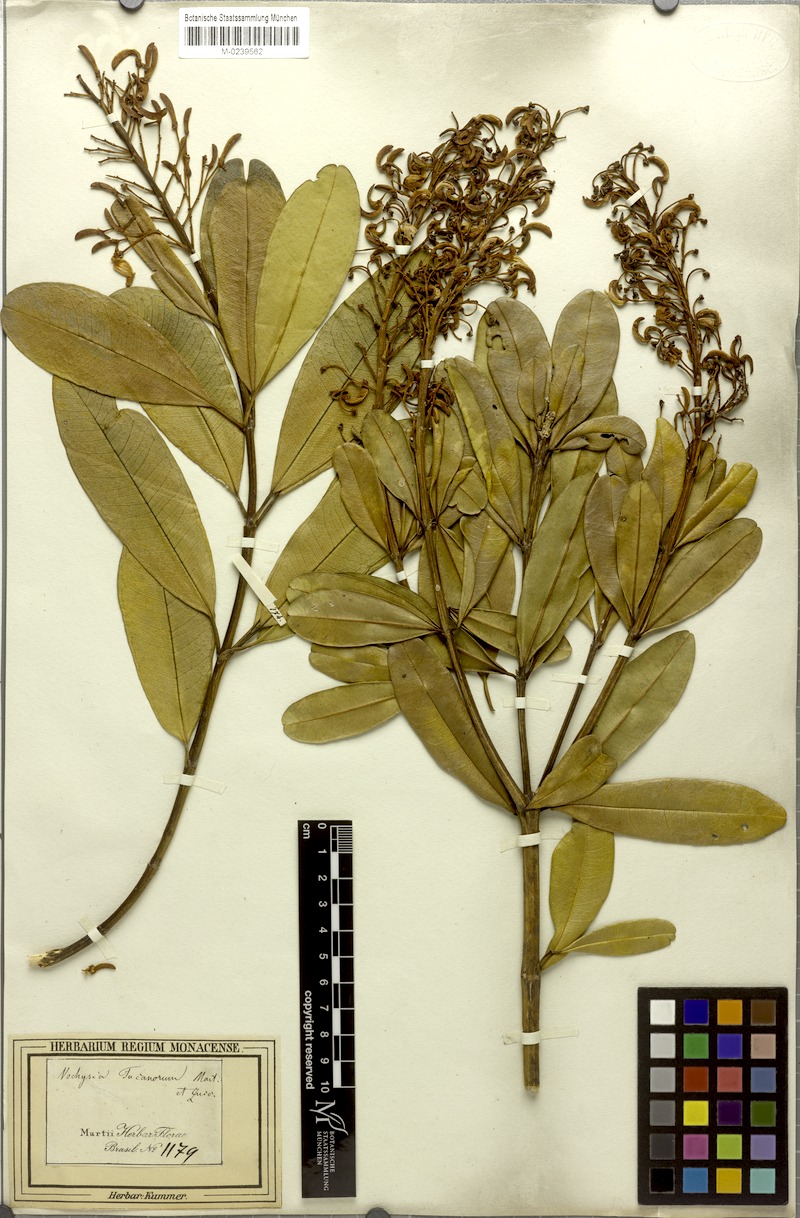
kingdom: Plantae
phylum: Tracheophyta
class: Magnoliopsida
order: Myrtales
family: Vochysiaceae
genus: Vochysia
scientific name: Vochysia tucanorum
